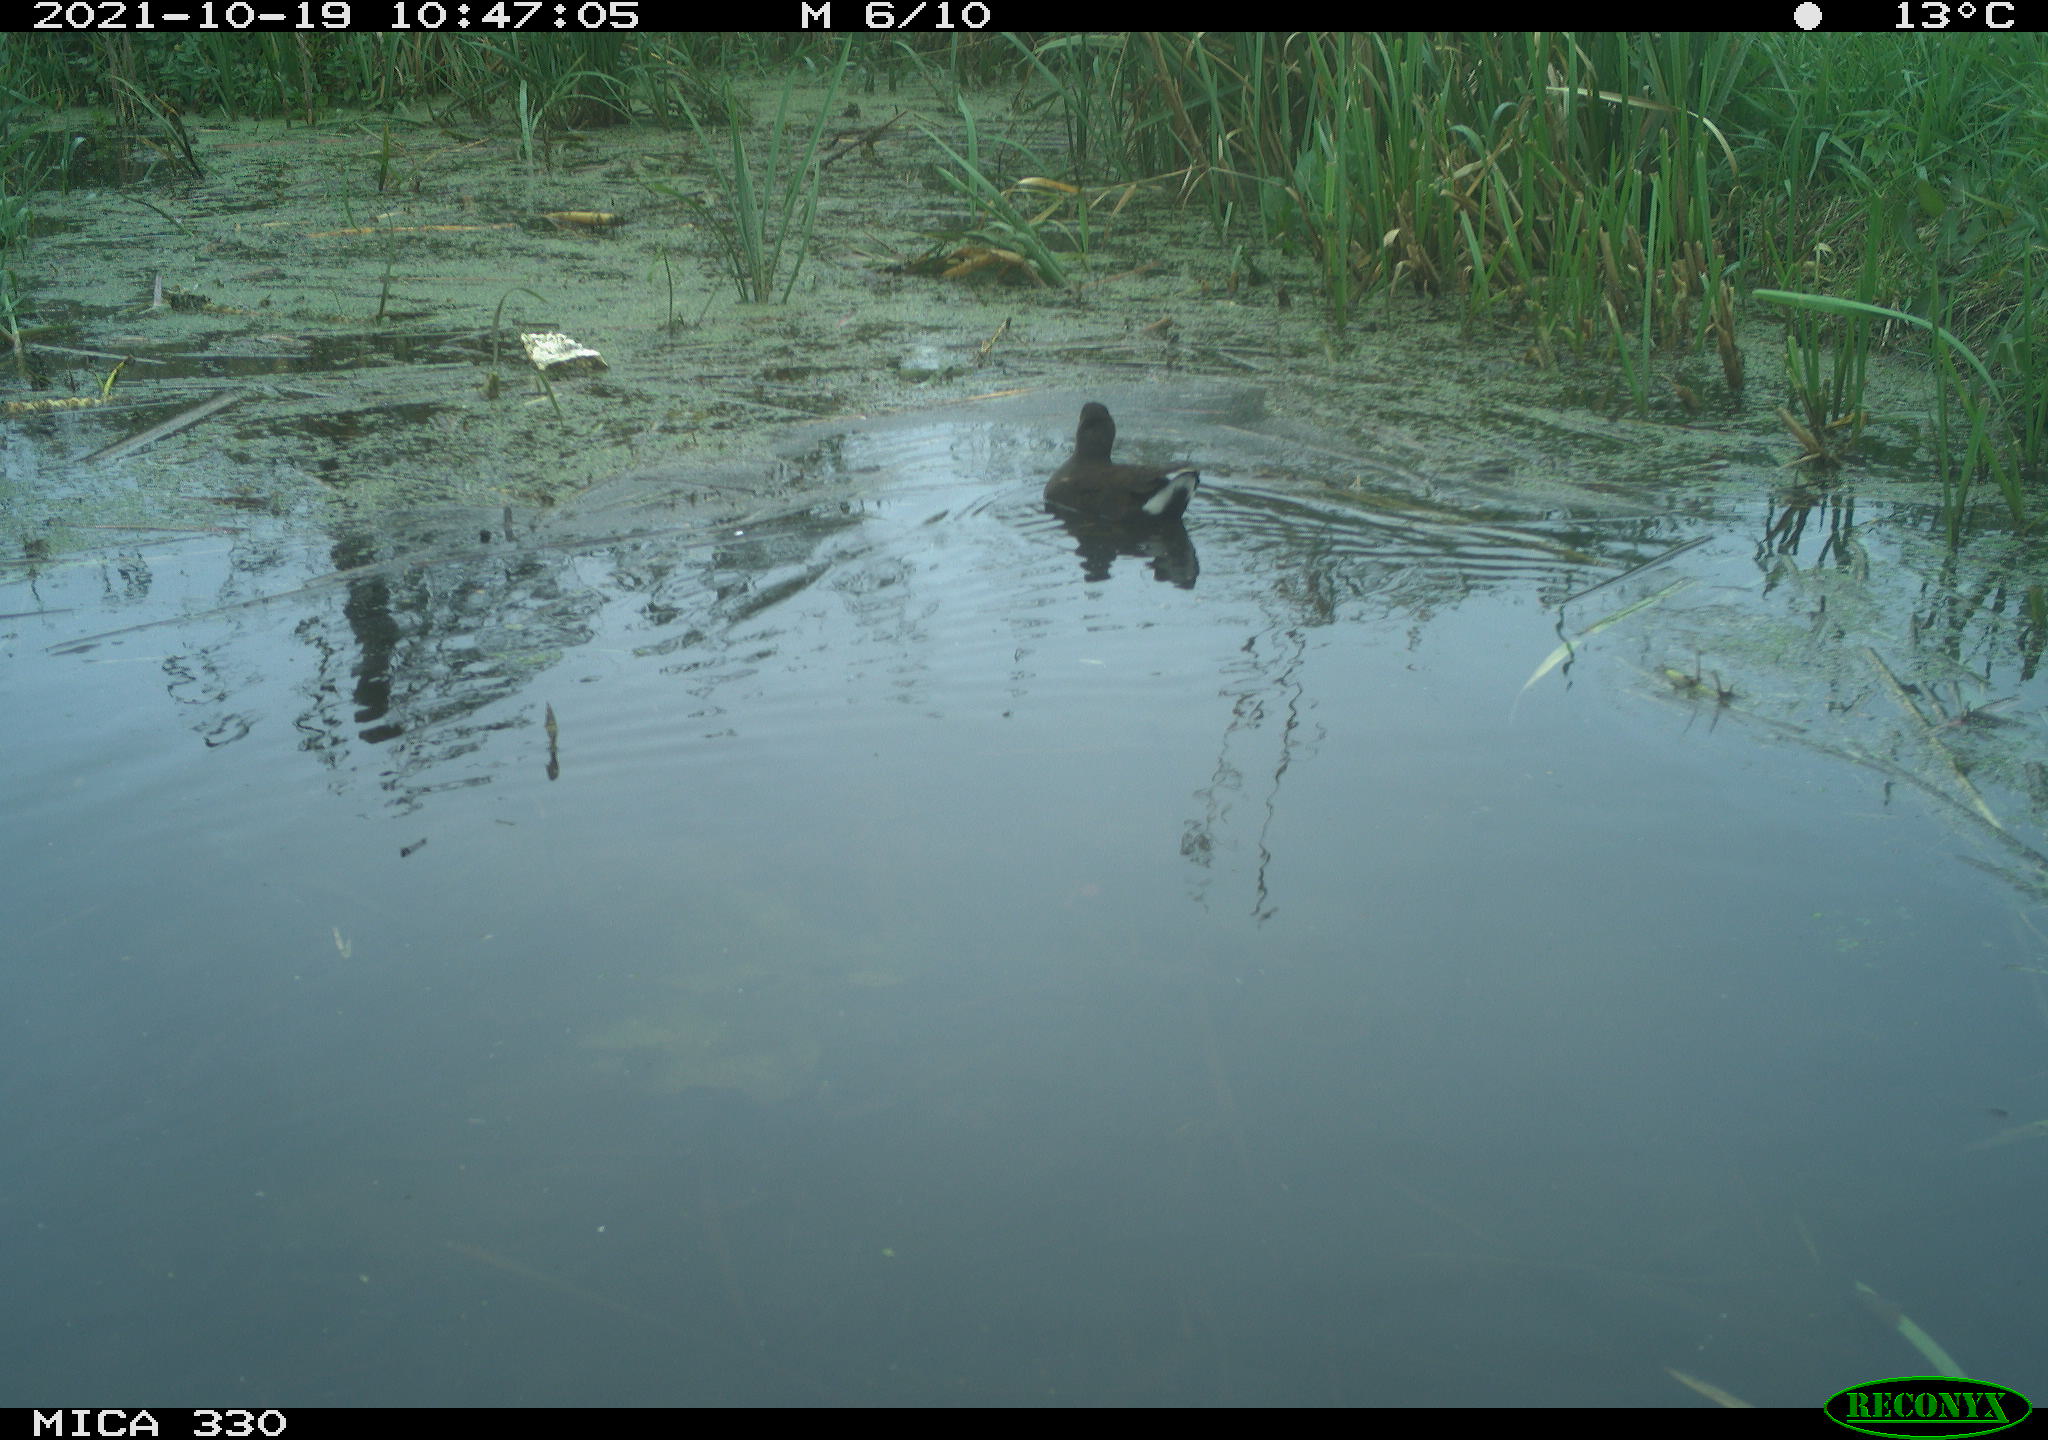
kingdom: Animalia
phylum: Chordata
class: Aves
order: Gruiformes
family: Rallidae
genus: Gallinula
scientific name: Gallinula chloropus
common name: Common moorhen
